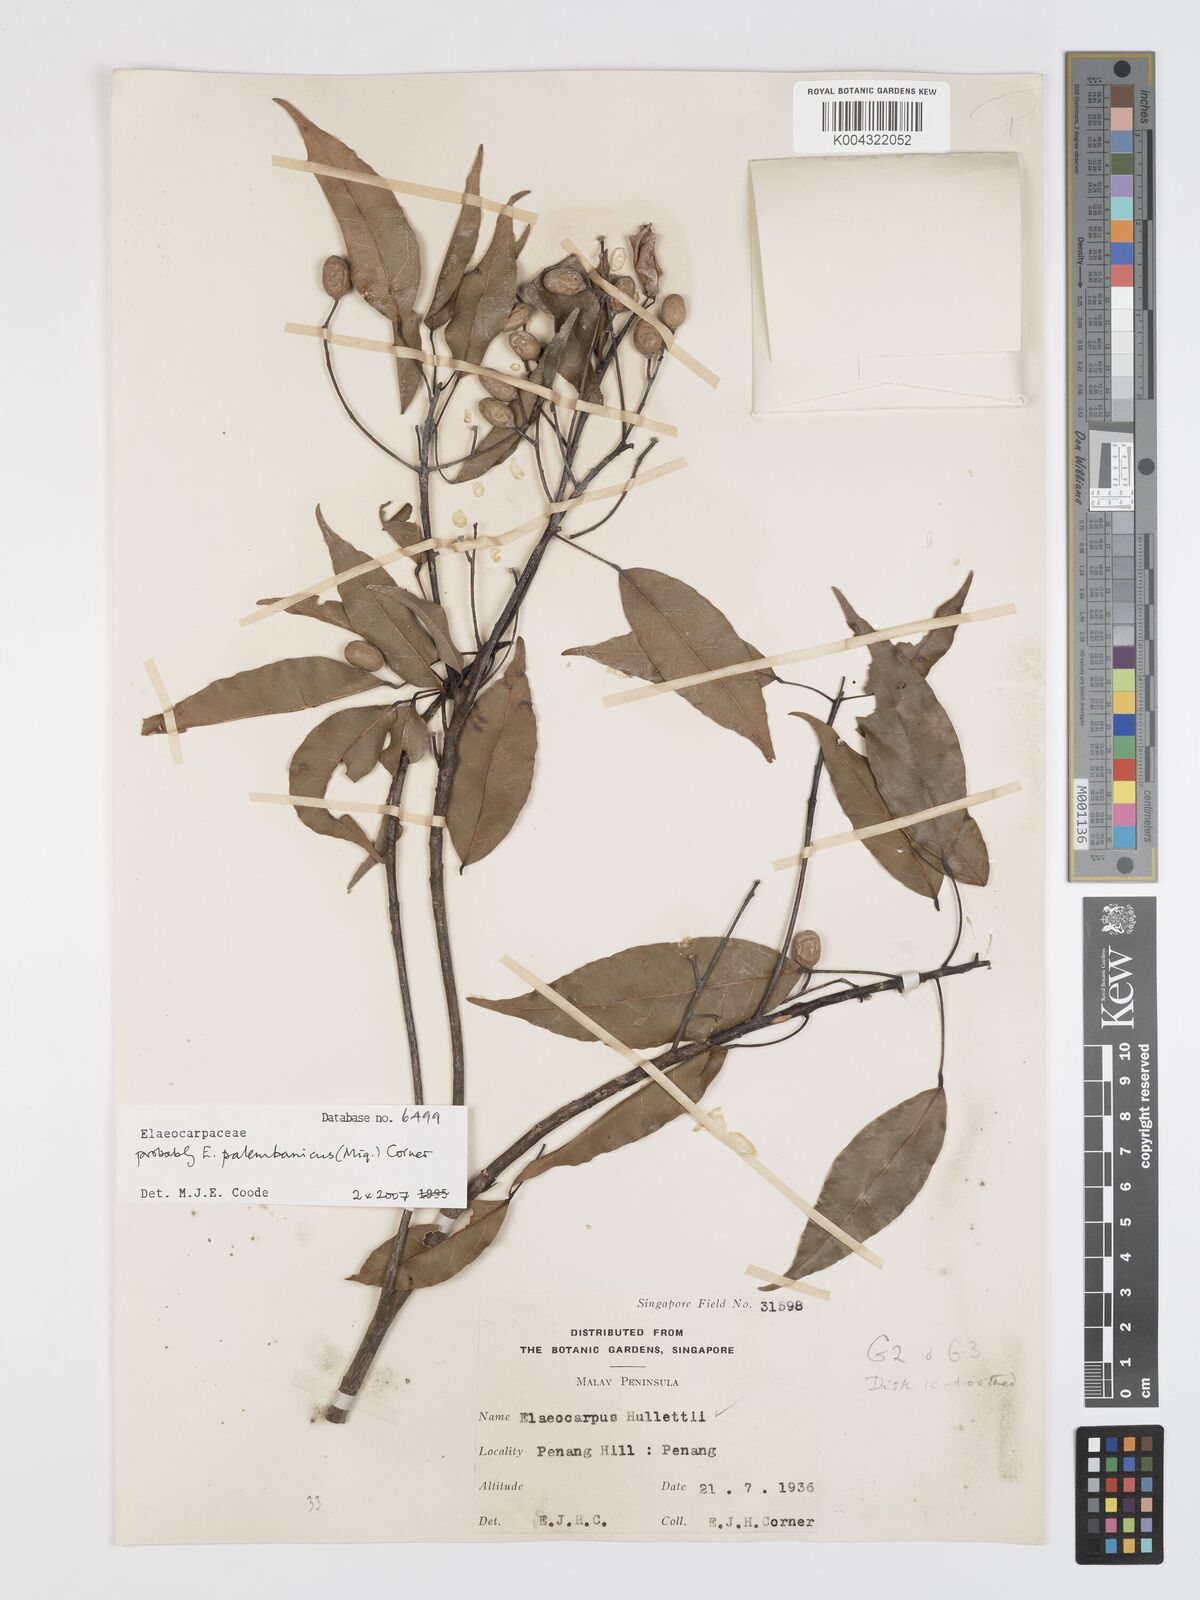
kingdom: Plantae
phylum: Tracheophyta
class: Magnoliopsida
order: Oxalidales
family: Elaeocarpaceae
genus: Elaeocarpus
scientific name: Elaeocarpus palembanicus
